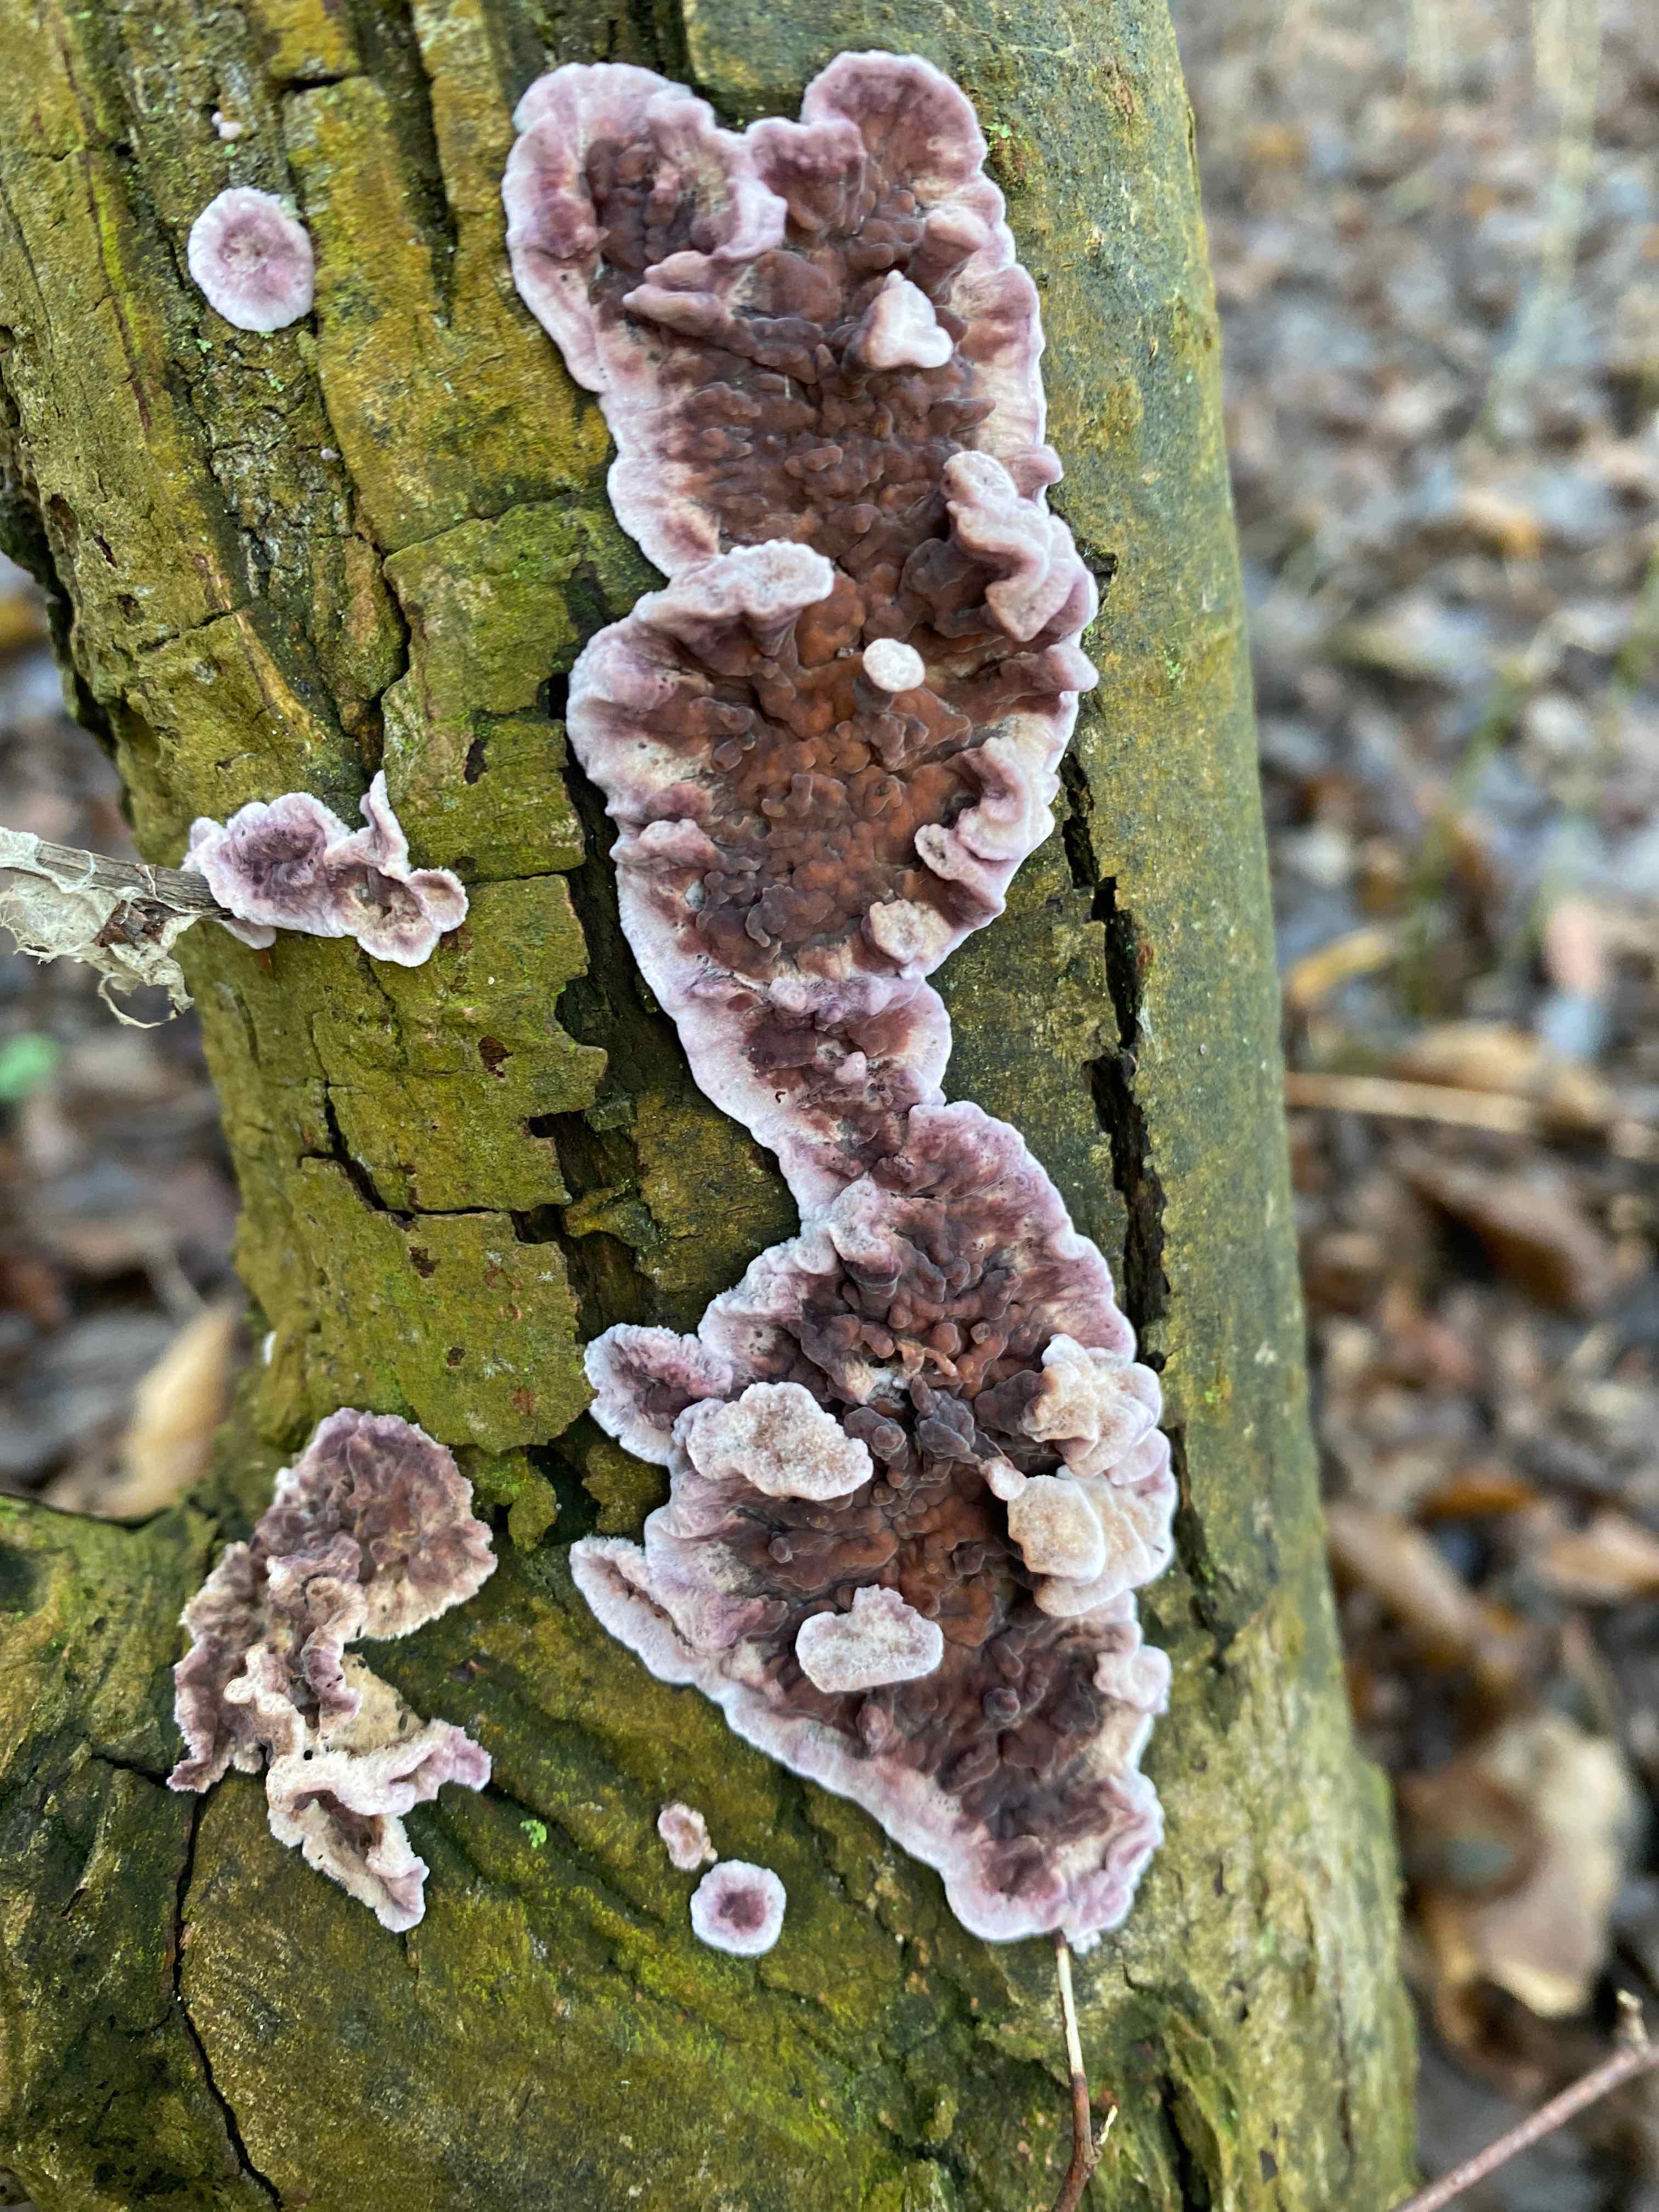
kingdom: Fungi
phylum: Basidiomycota
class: Agaricomycetes
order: Agaricales
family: Cyphellaceae
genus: Chondrostereum
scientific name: Chondrostereum purpureum
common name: purpurlædersvamp
